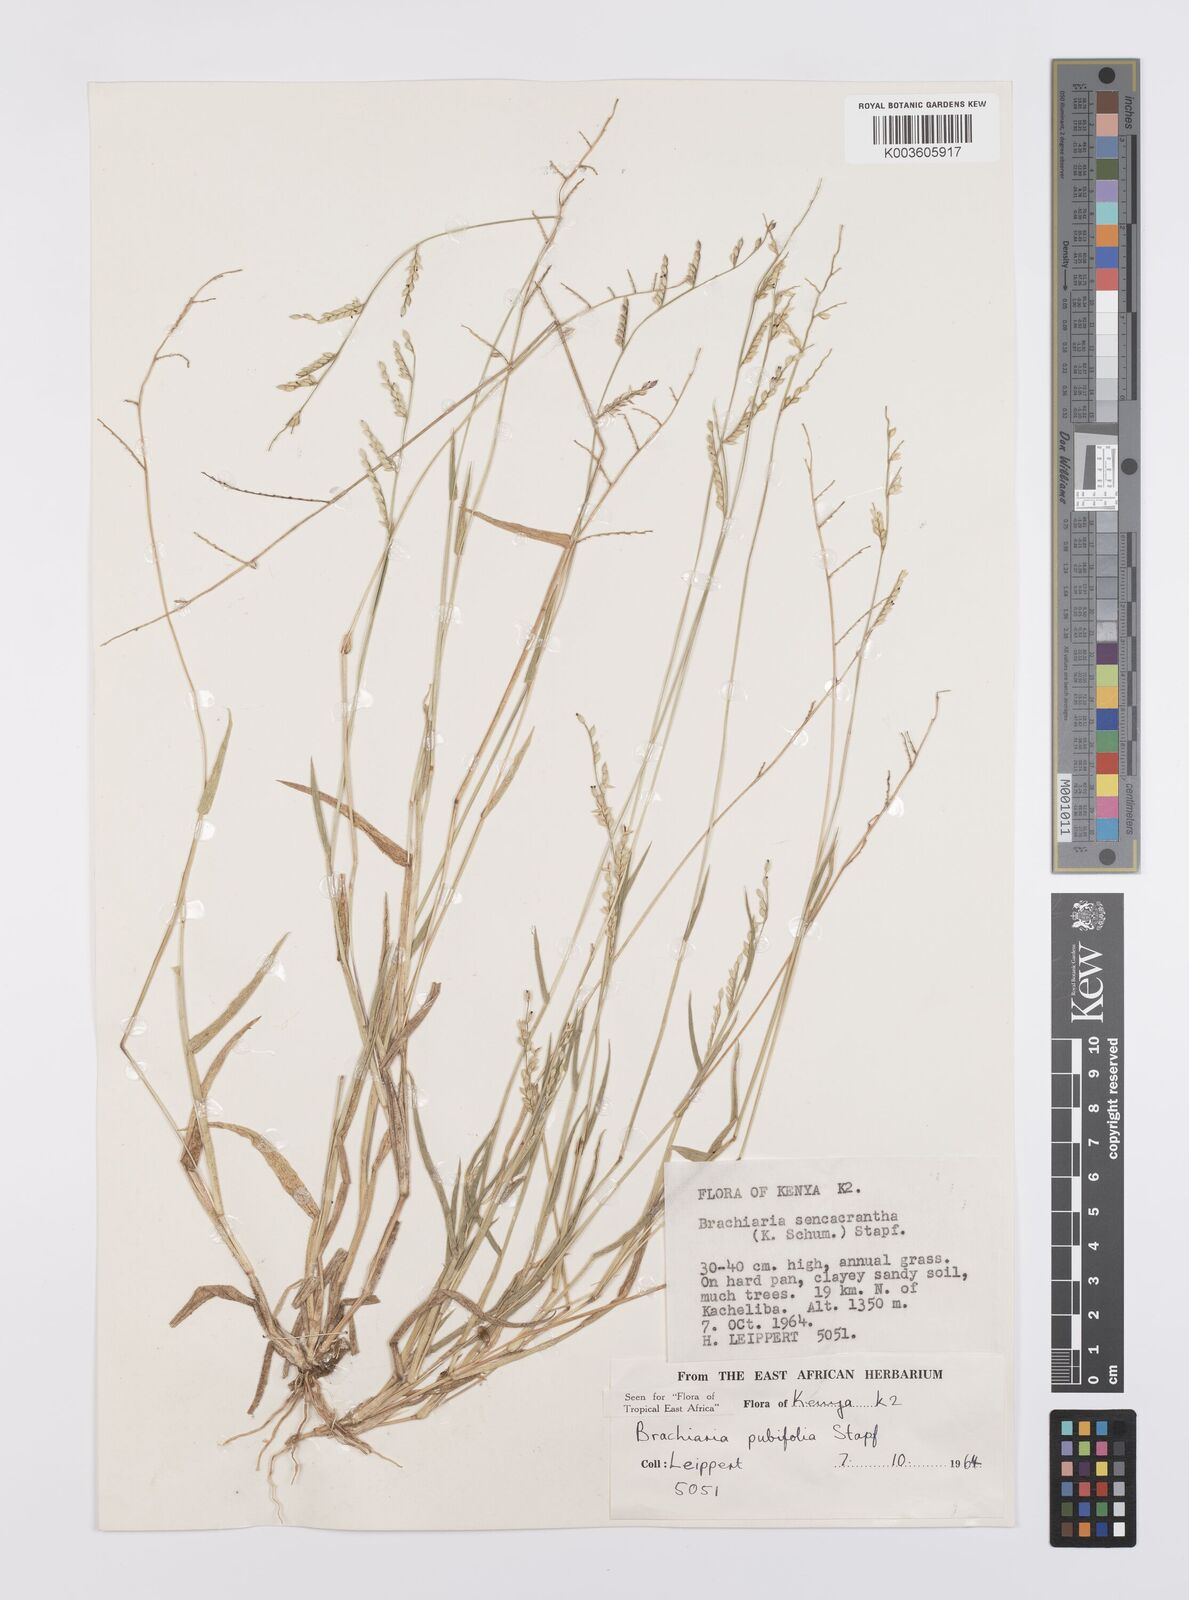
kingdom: Plantae
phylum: Tracheophyta
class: Liliopsida
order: Poales
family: Poaceae
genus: Urochloa
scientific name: Urochloa xantholeuca
